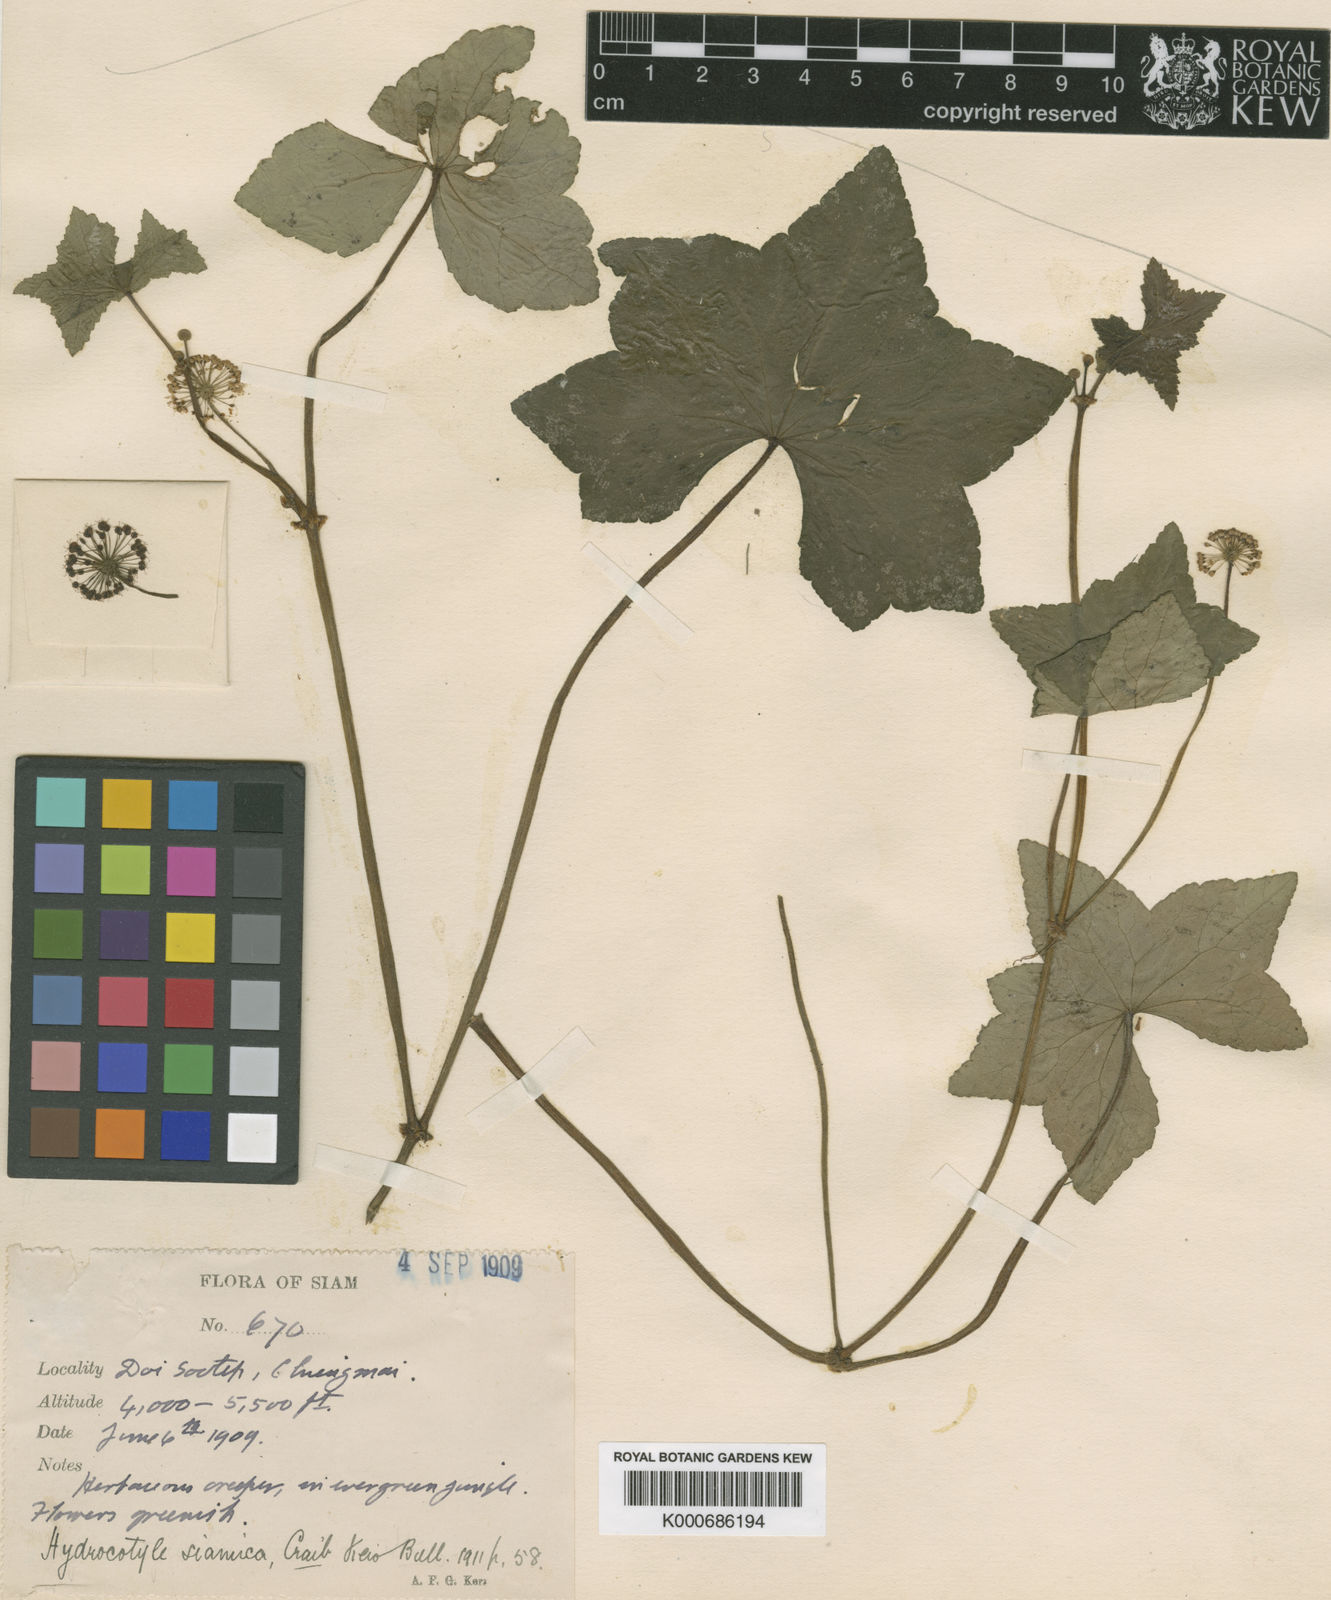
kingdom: Plantae
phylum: Tracheophyta
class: Magnoliopsida
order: Apiales
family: Araliaceae
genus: Hydrocotyle
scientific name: Hydrocotyle hookeri
